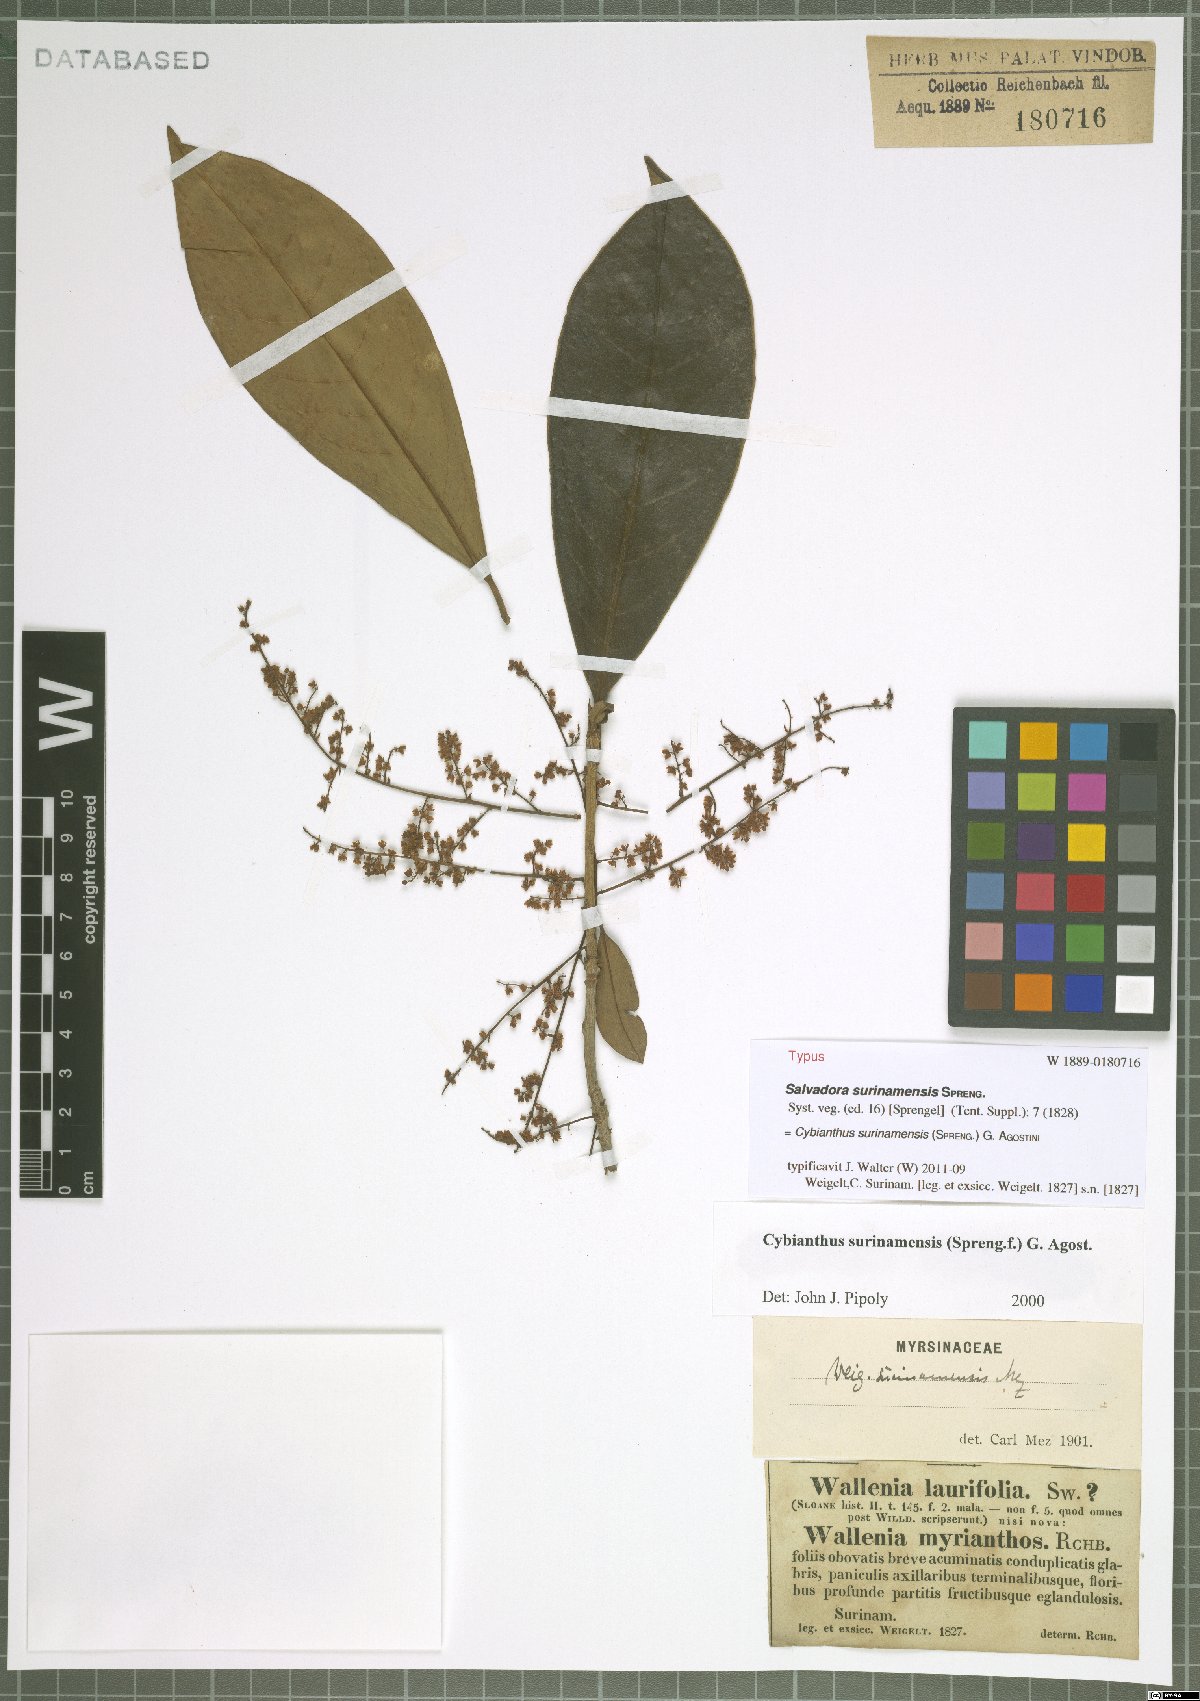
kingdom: Plantae
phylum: Tracheophyta
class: Magnoliopsida
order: Ericales
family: Primulaceae
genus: Cybianthus
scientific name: Cybianthus surinamensis
